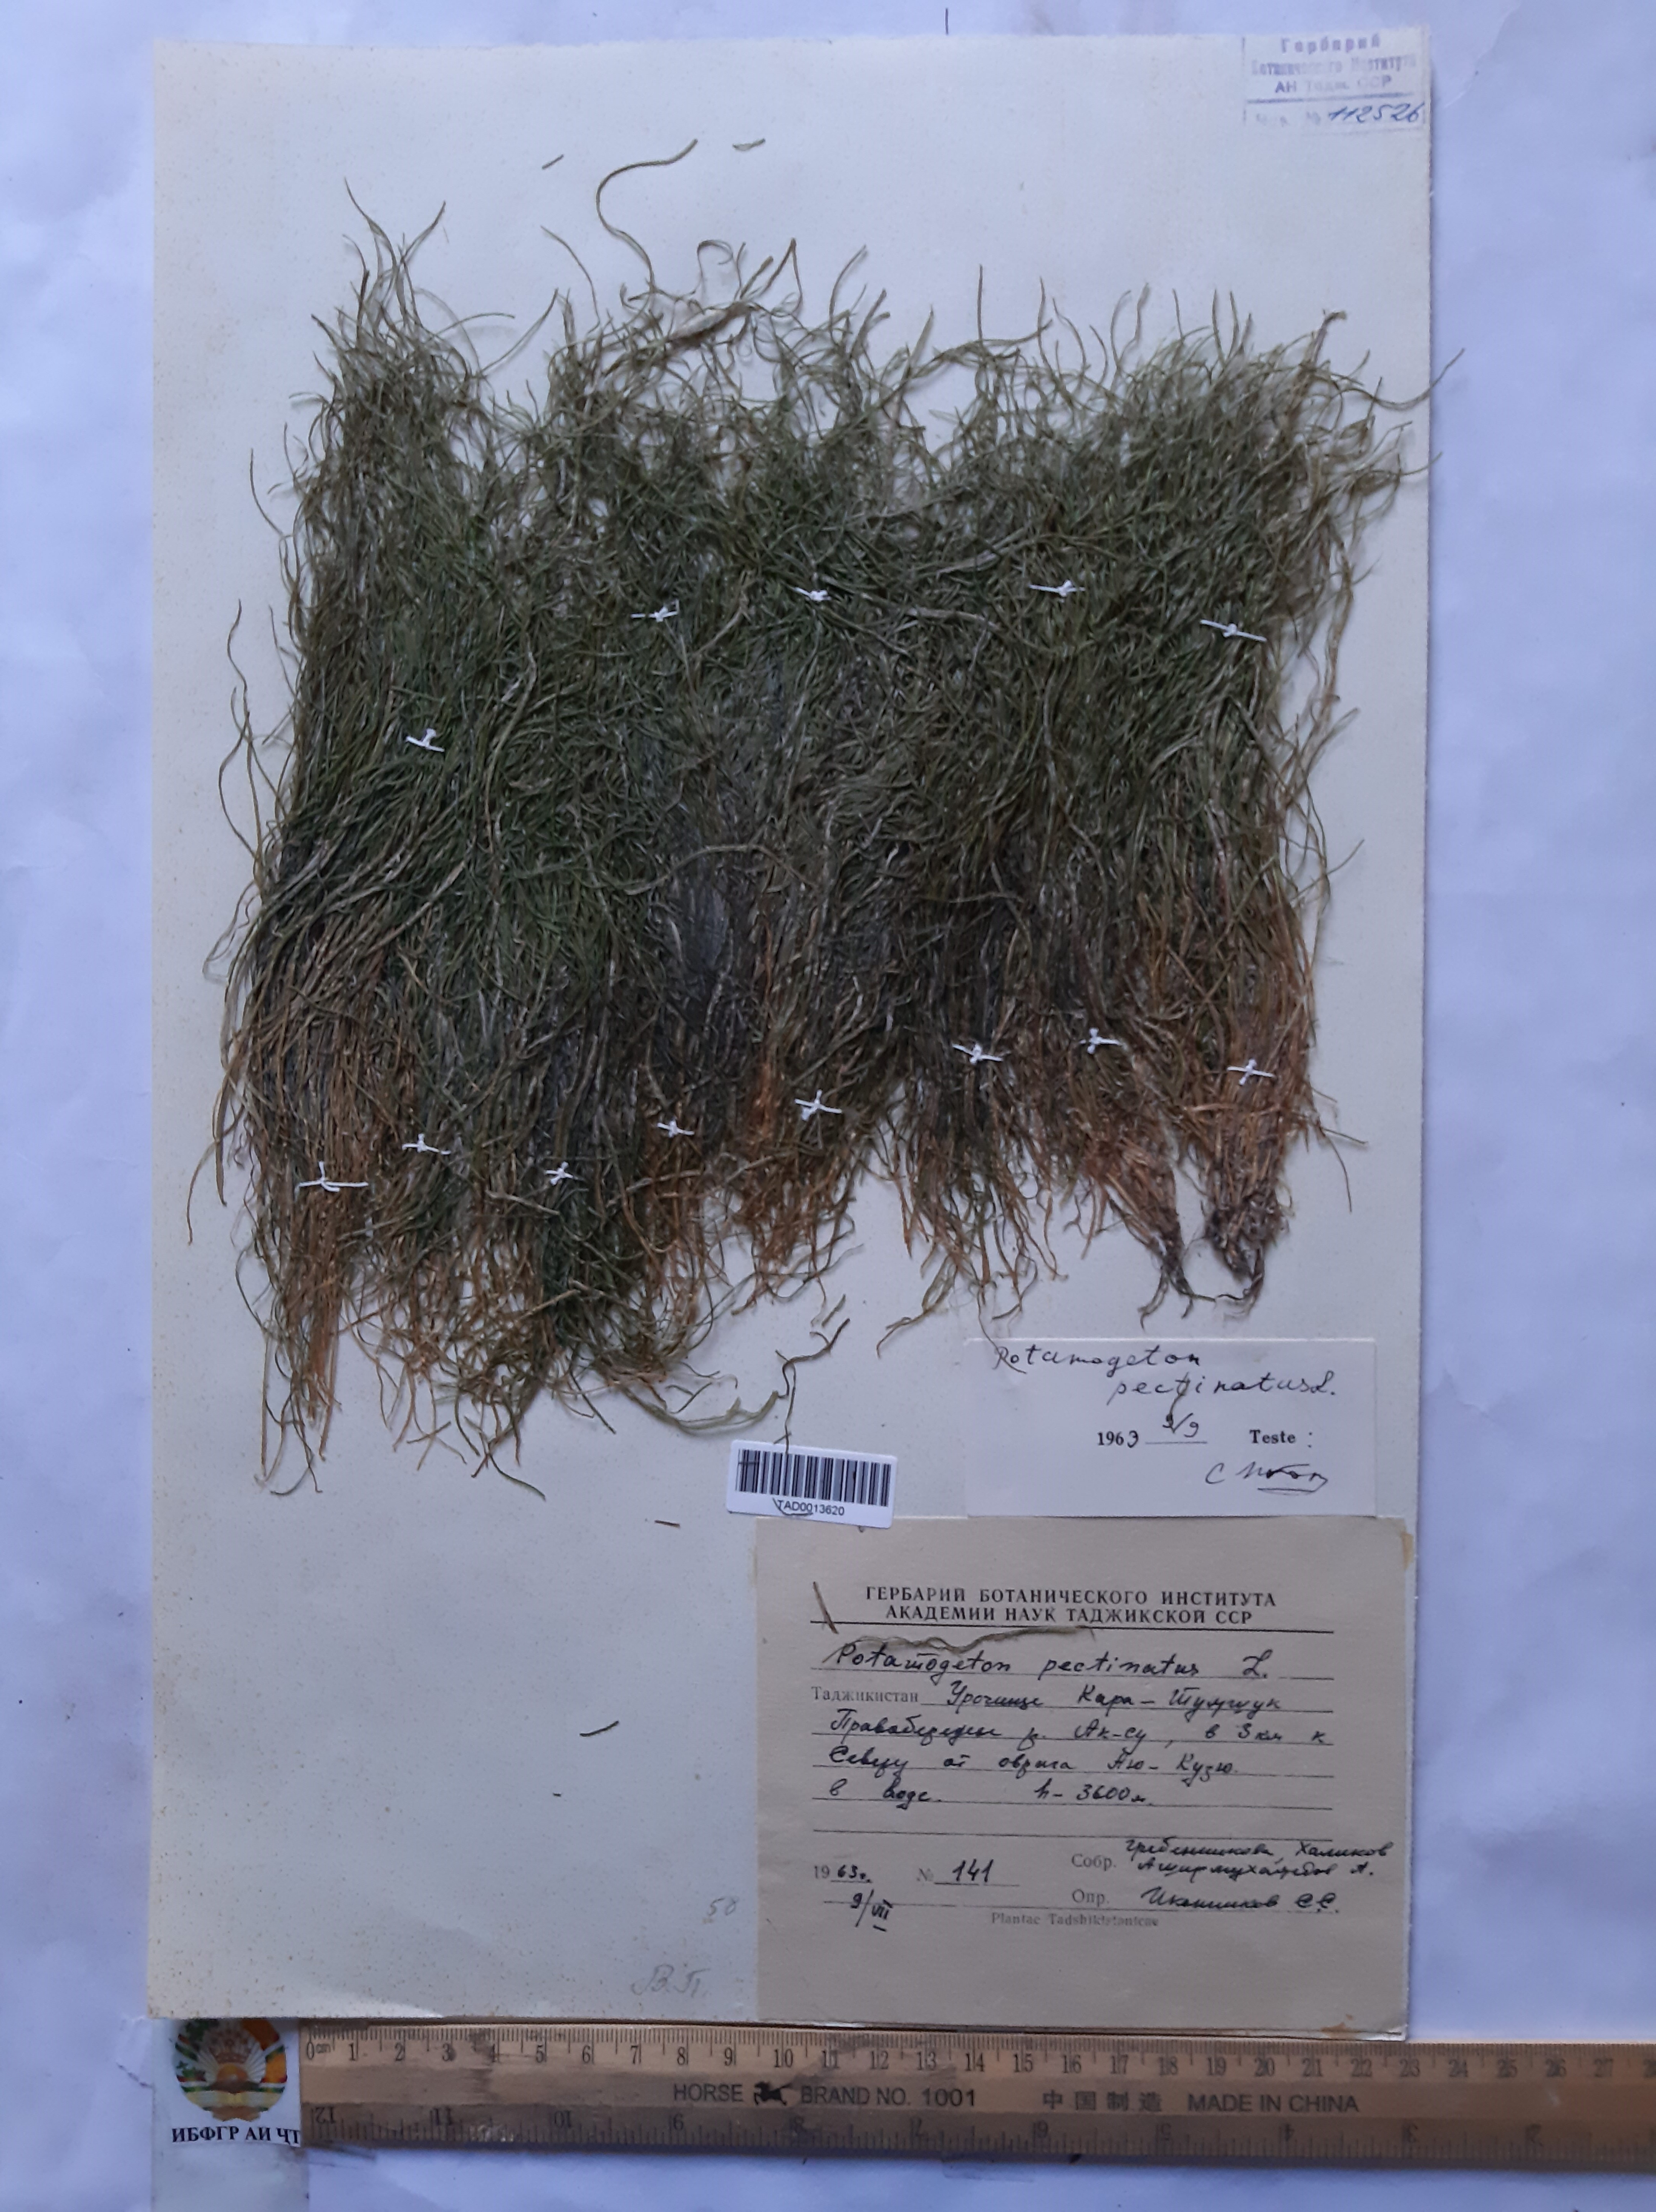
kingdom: Plantae
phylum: Tracheophyta
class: Liliopsida
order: Alismatales
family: Potamogetonaceae
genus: Stuckenia
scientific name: Stuckenia pectinata
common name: Sago pondweed
